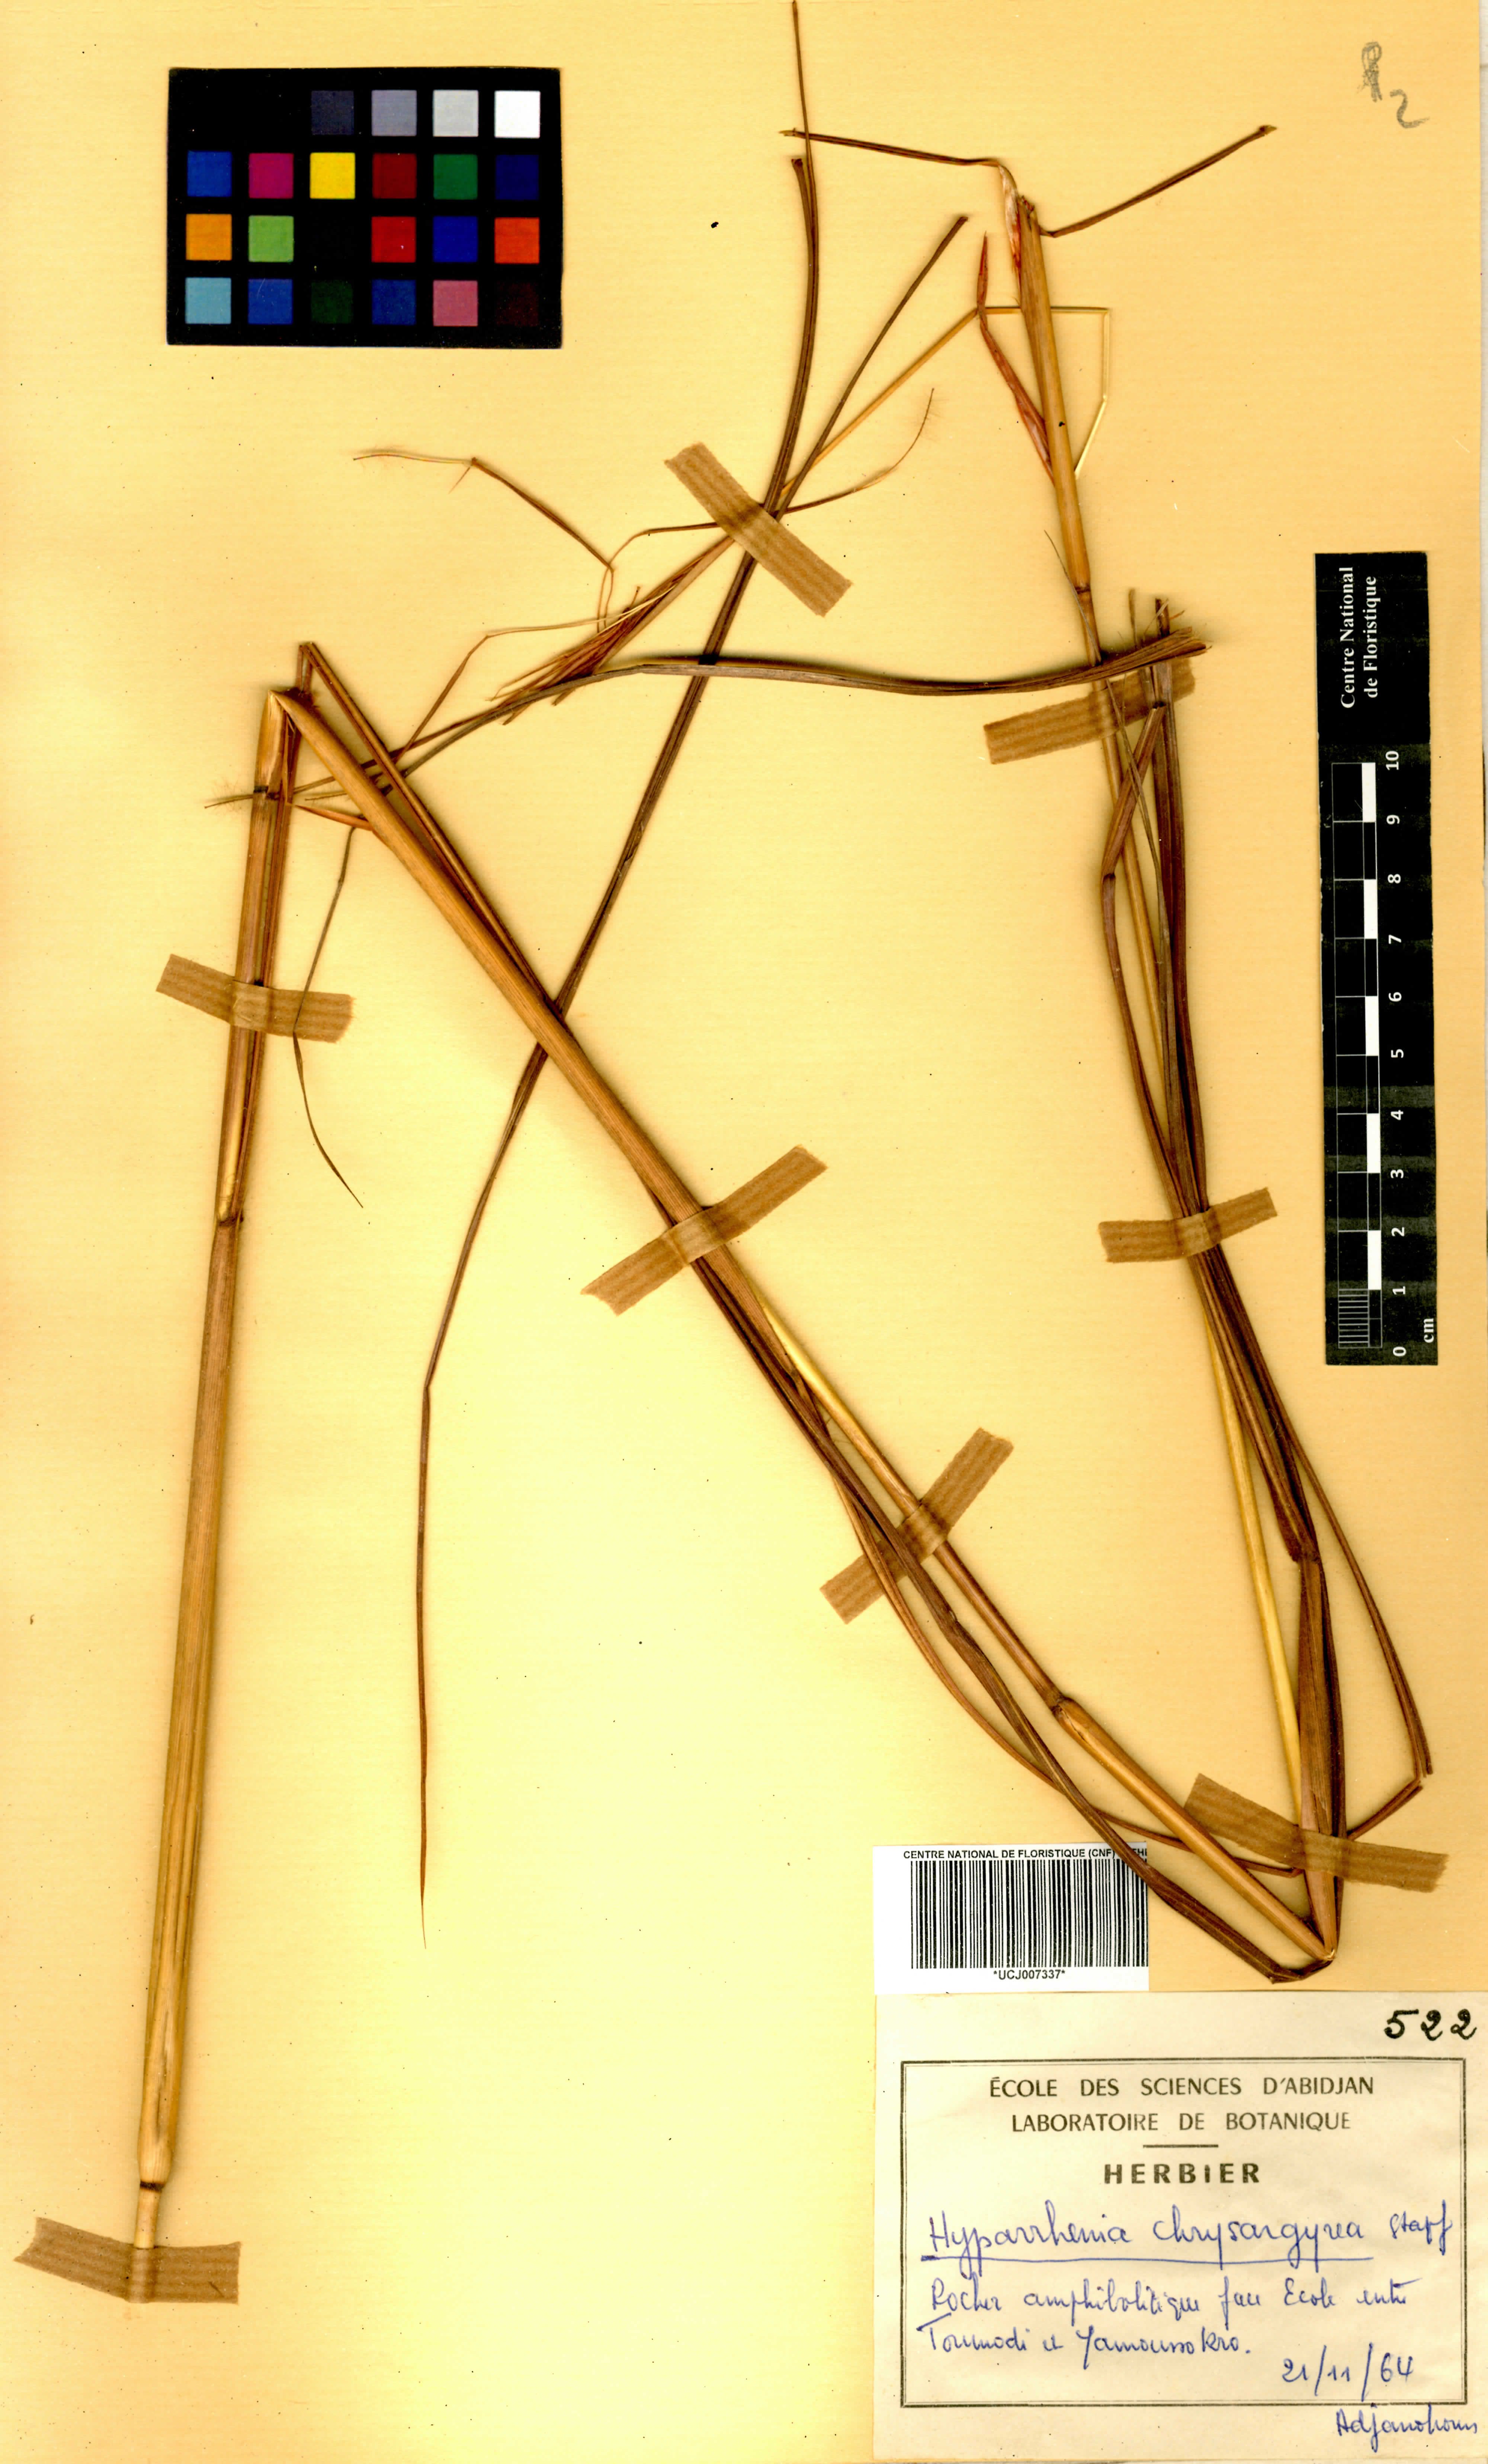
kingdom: Plantae
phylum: Tracheophyta
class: Liliopsida
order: Poales
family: Poaceae
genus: Hyparrhenia
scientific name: Hyparrhenia nyassae
